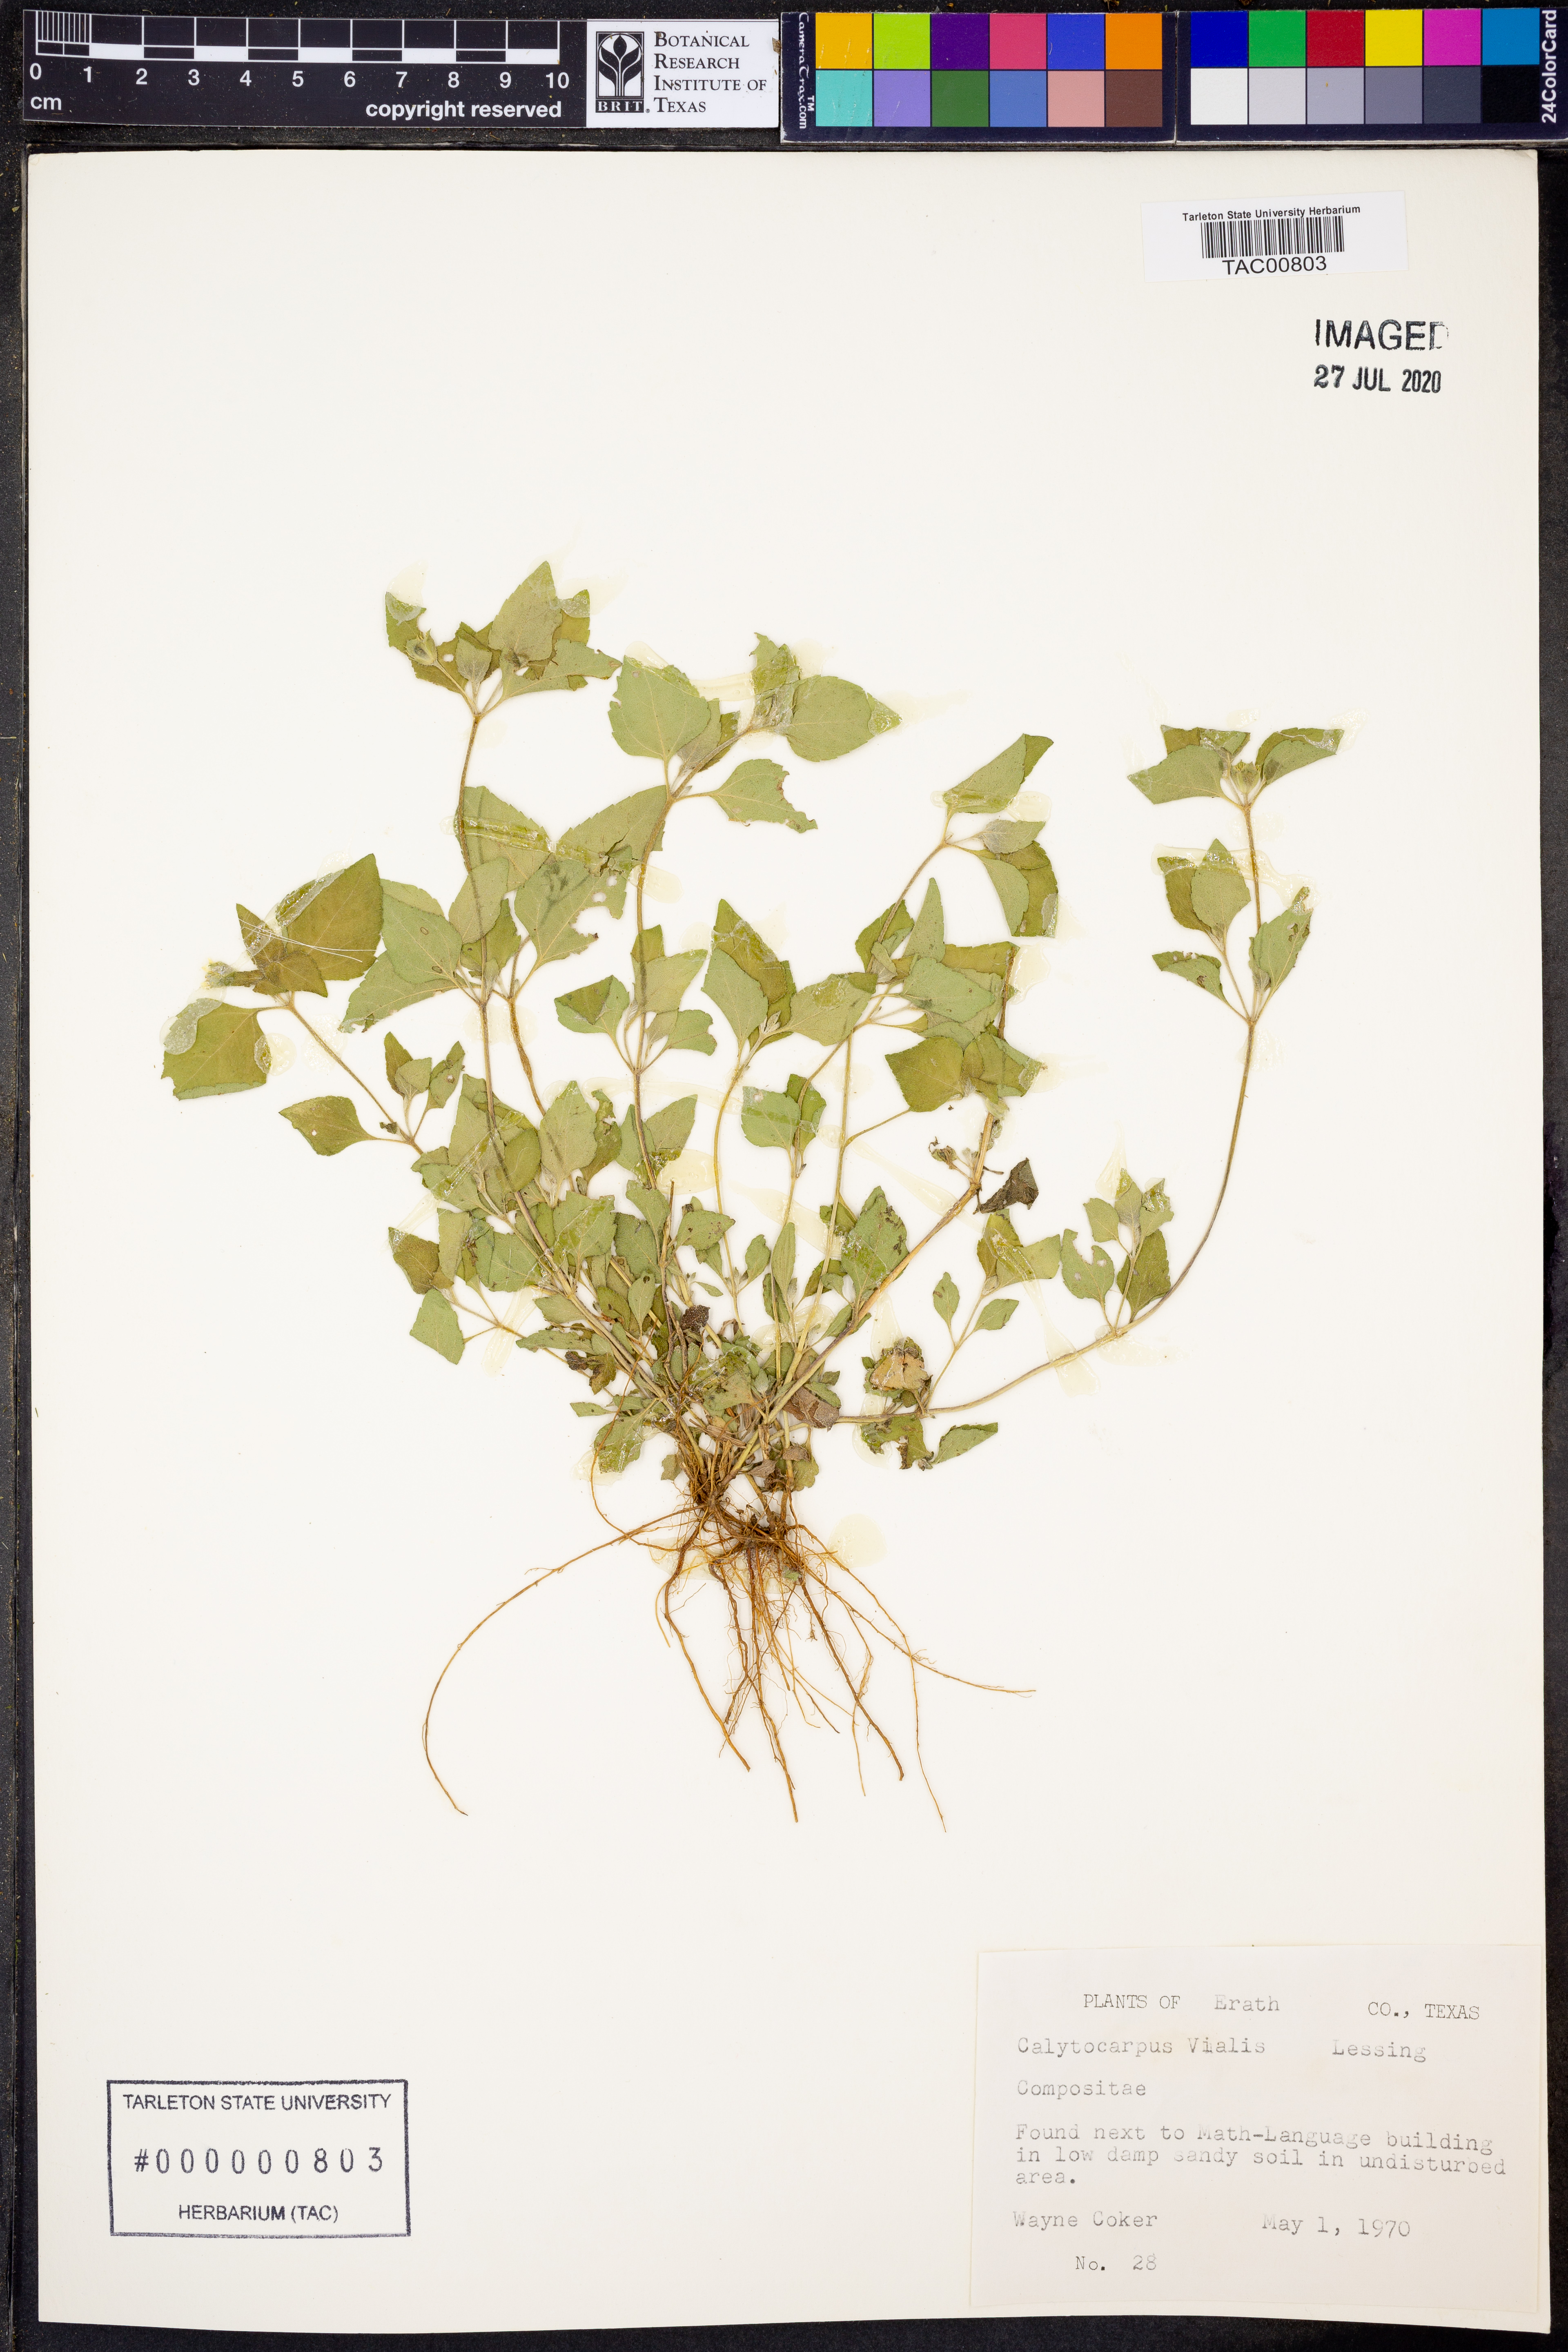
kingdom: Plantae
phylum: Tracheophyta
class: Magnoliopsida
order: Asterales
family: Asteraceae
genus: Calyptocarpus
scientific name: Calyptocarpus vialis
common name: Straggler daisy
